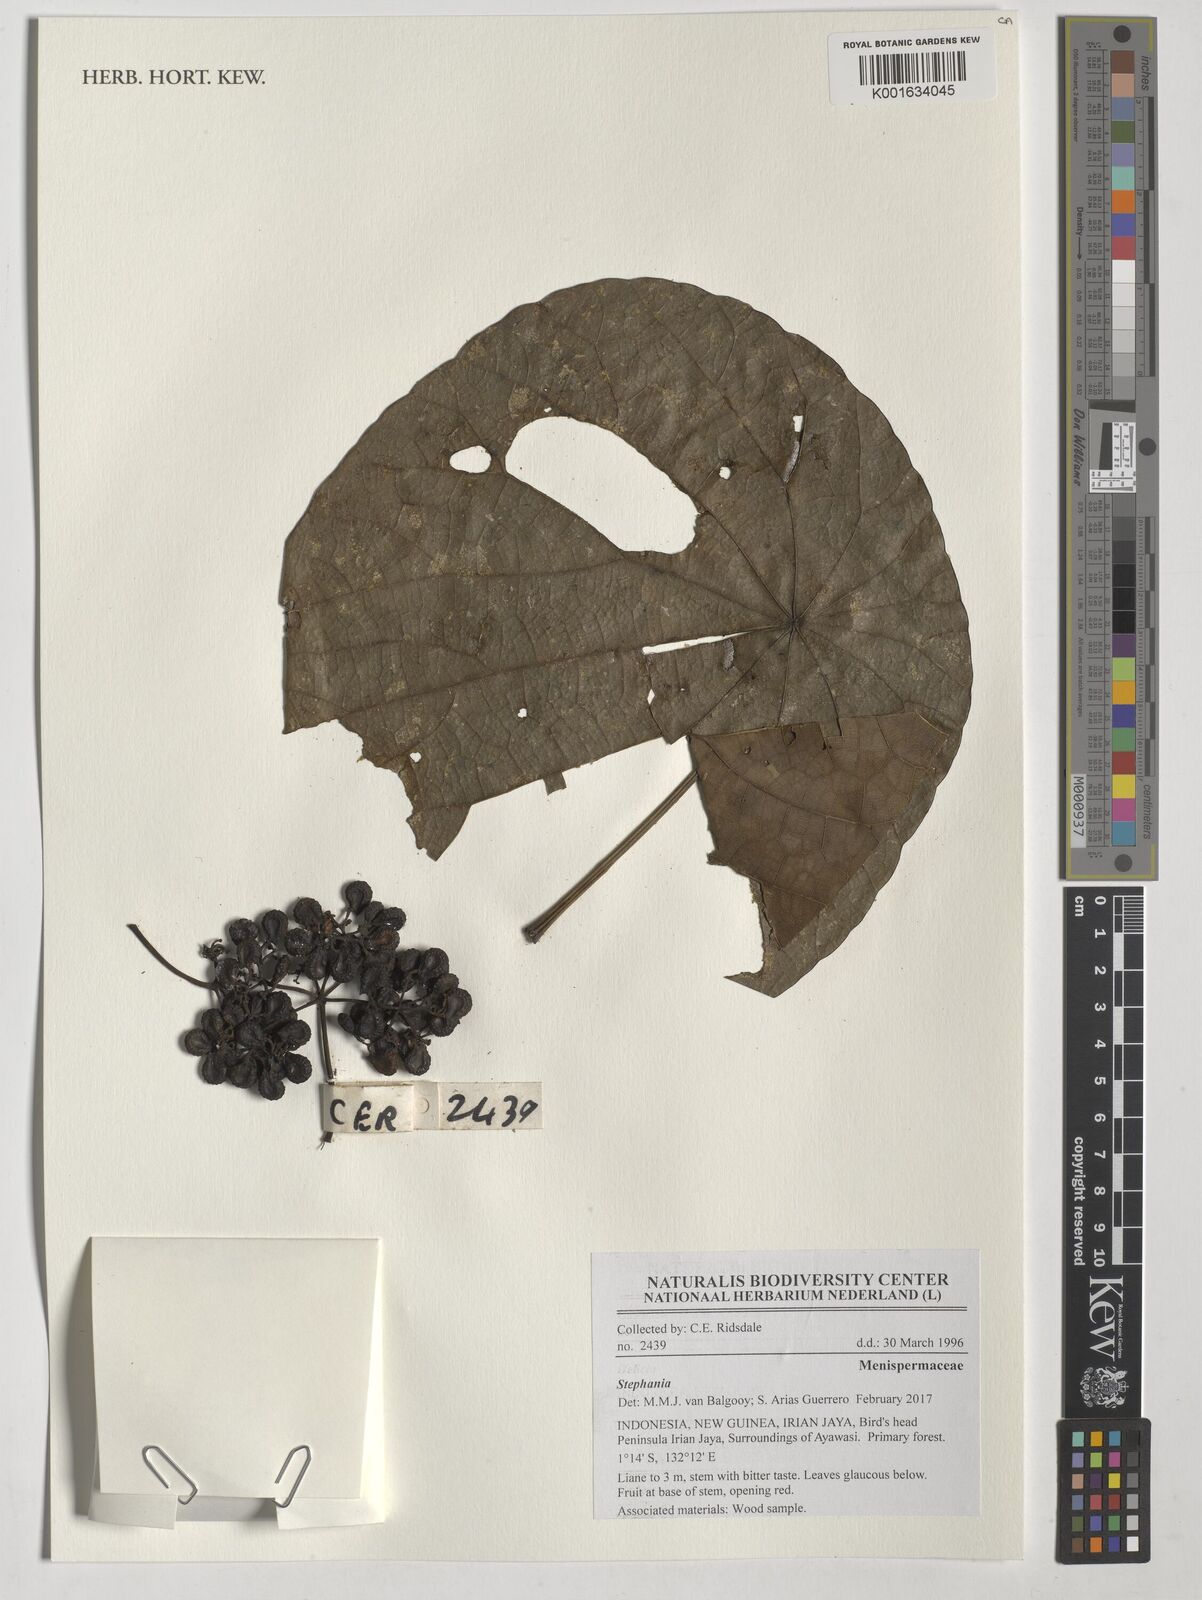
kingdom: Plantae
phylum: Tracheophyta
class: Magnoliopsida
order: Ranunculales
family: Menispermaceae
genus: Stephania
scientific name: Stephania
